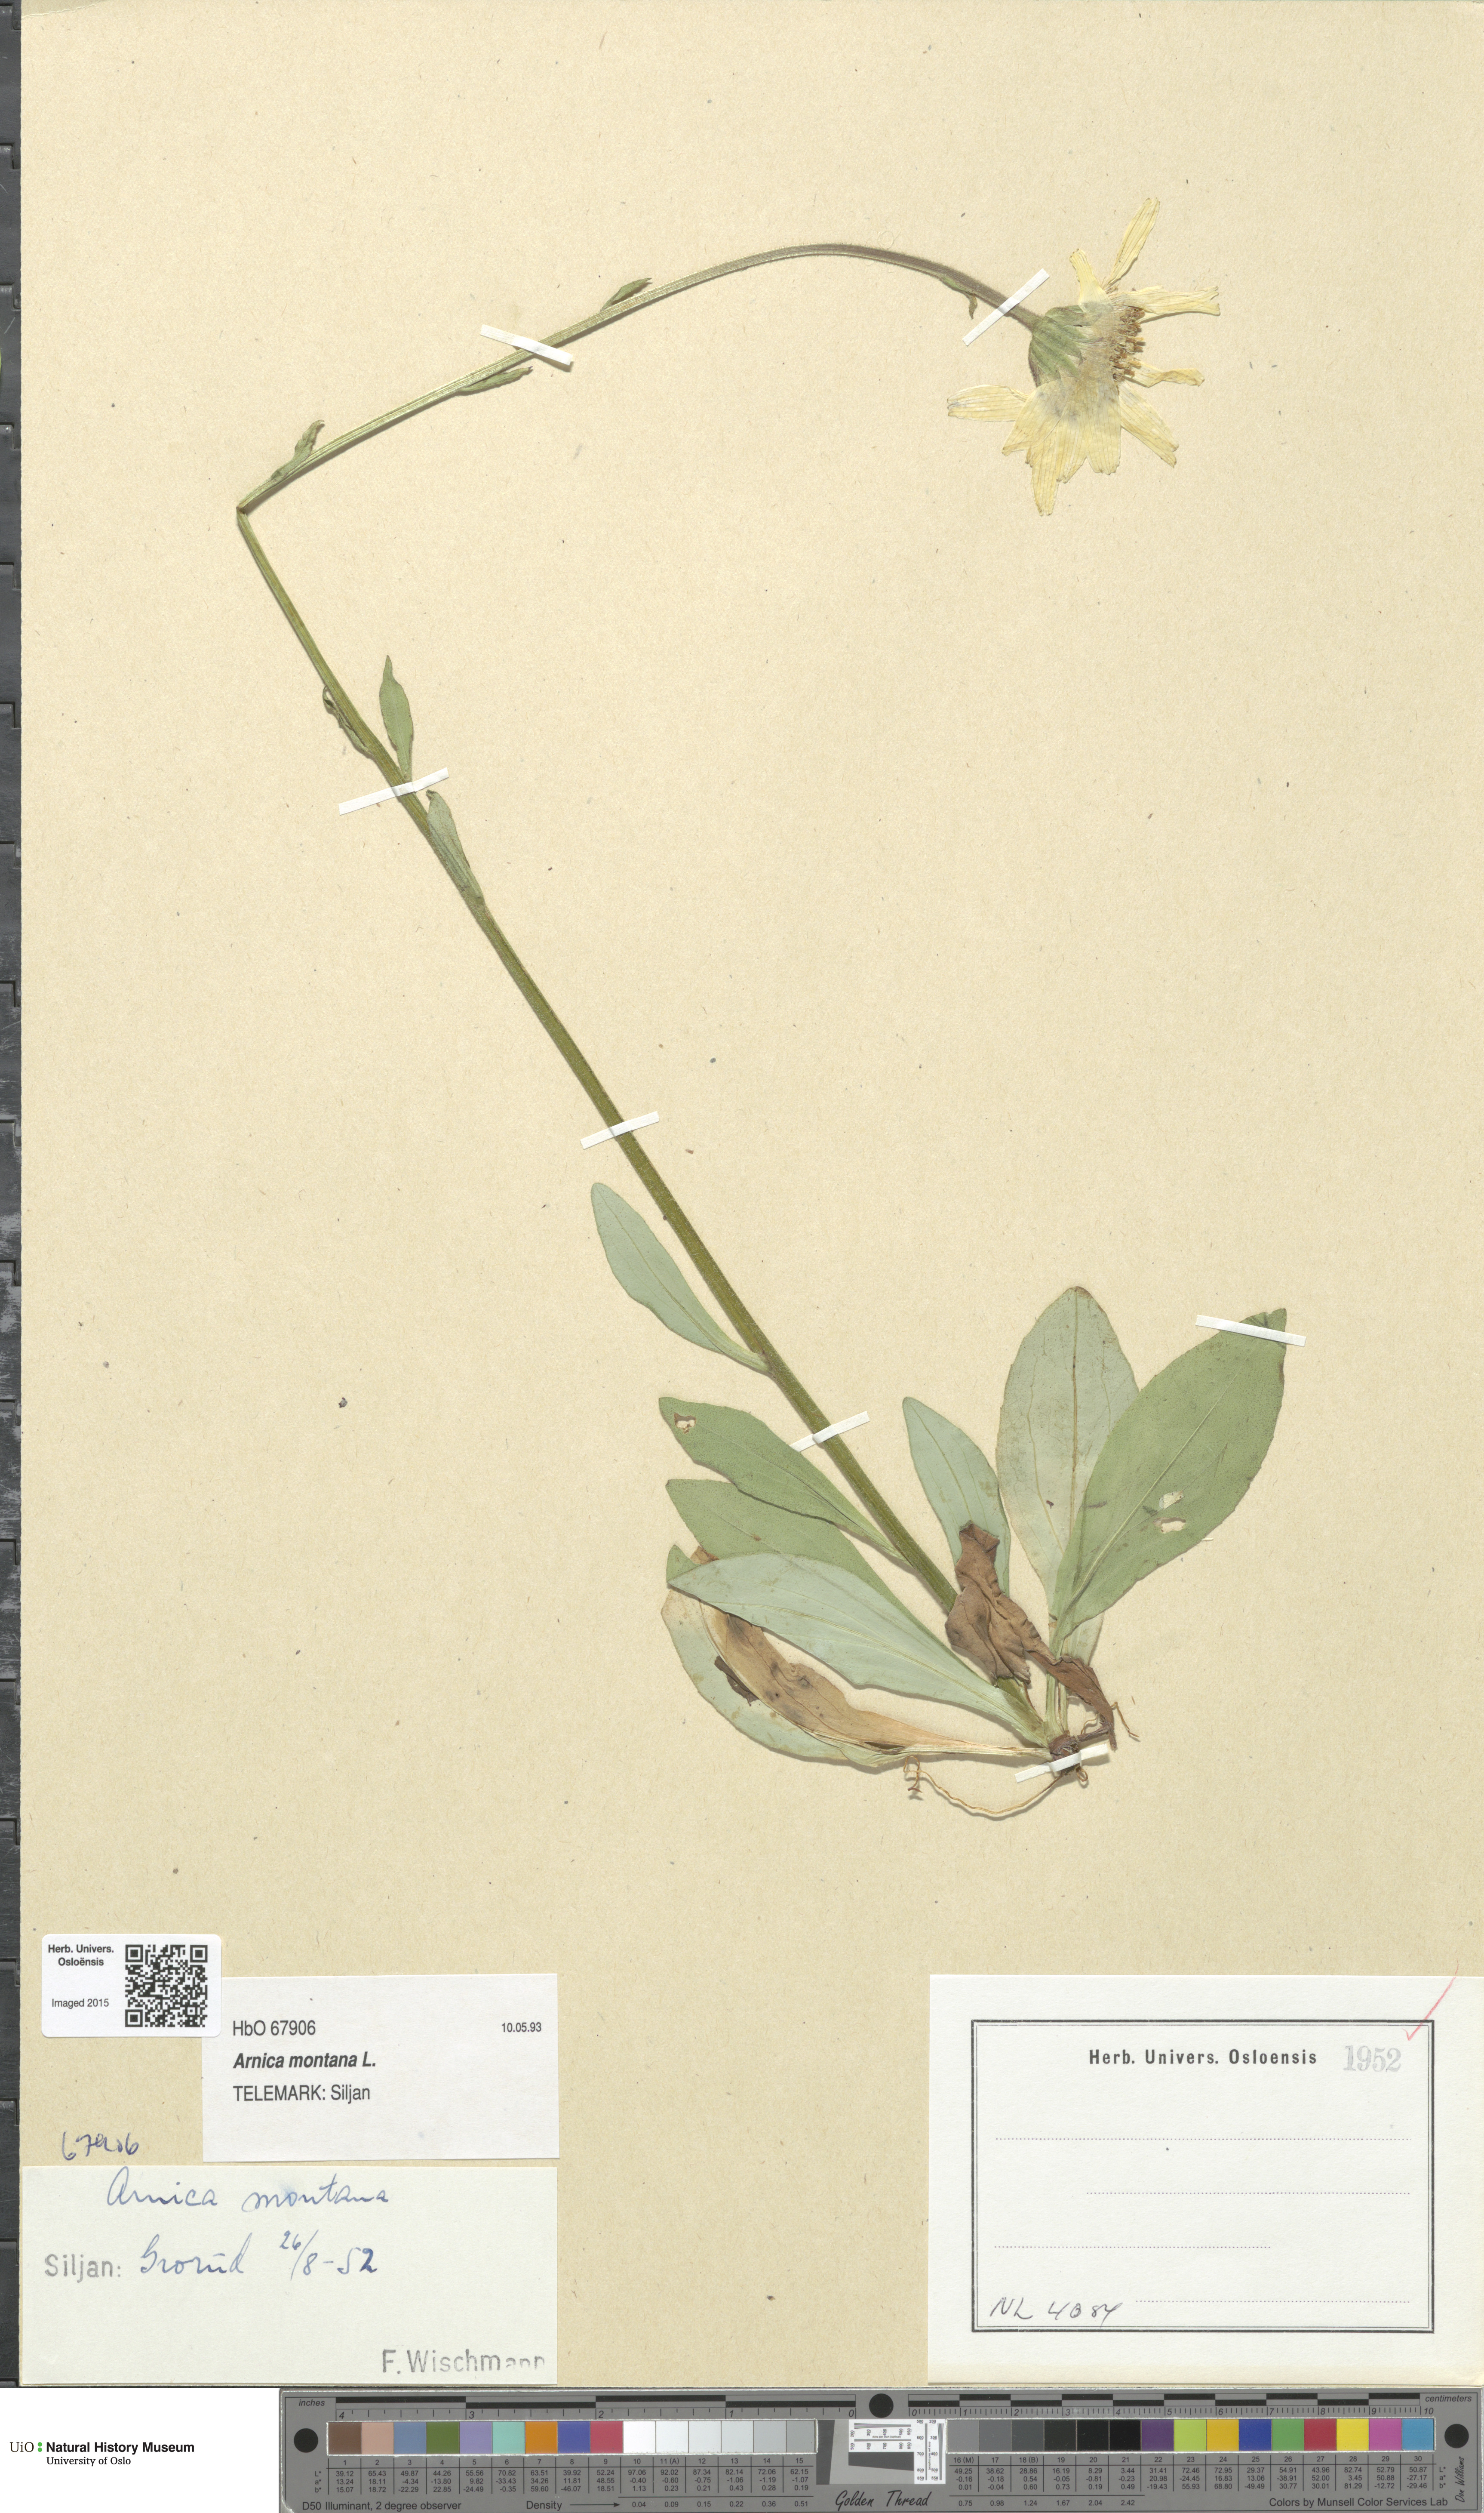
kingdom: Plantae
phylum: Tracheophyta
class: Magnoliopsida
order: Asterales
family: Asteraceae
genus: Arnica
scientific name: Arnica montana
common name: Leopard's bane
